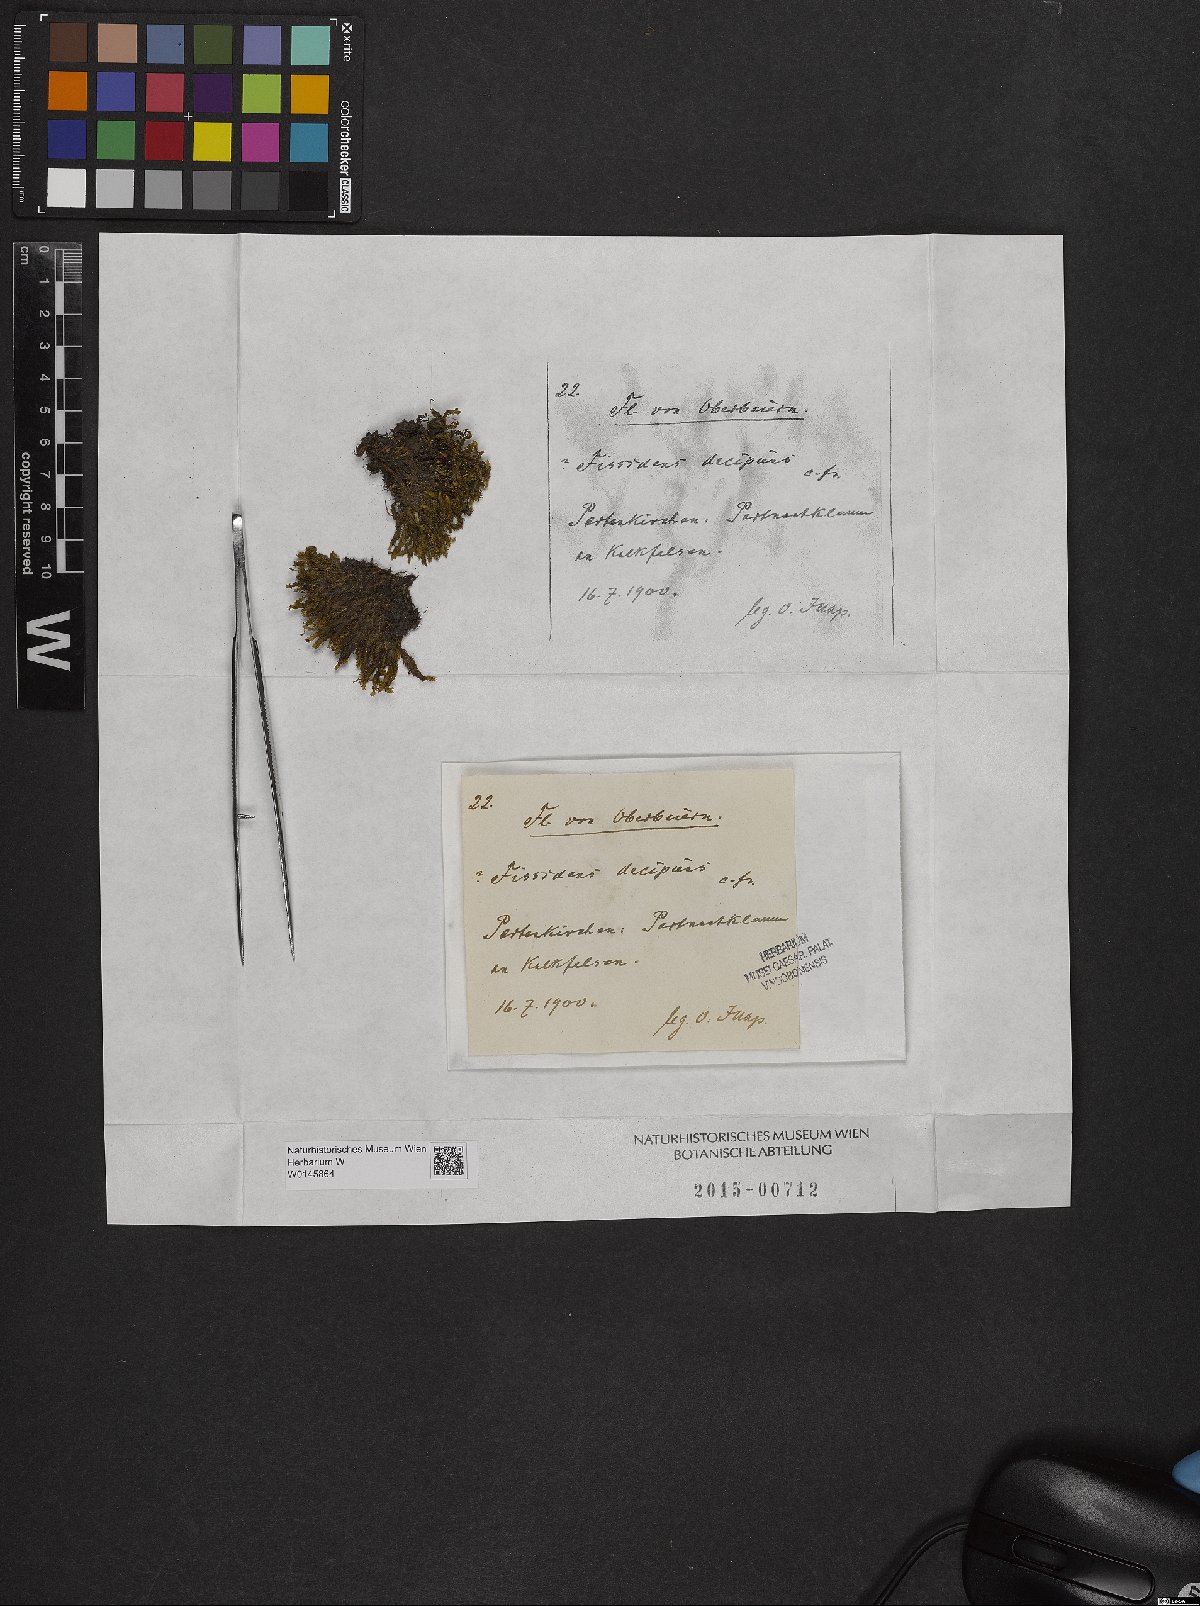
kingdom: Plantae
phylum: Bryophyta
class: Bryopsida
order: Dicranales
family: Fissidentaceae
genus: Fissidens
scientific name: Fissidens dubius
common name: Rock pocket moss
